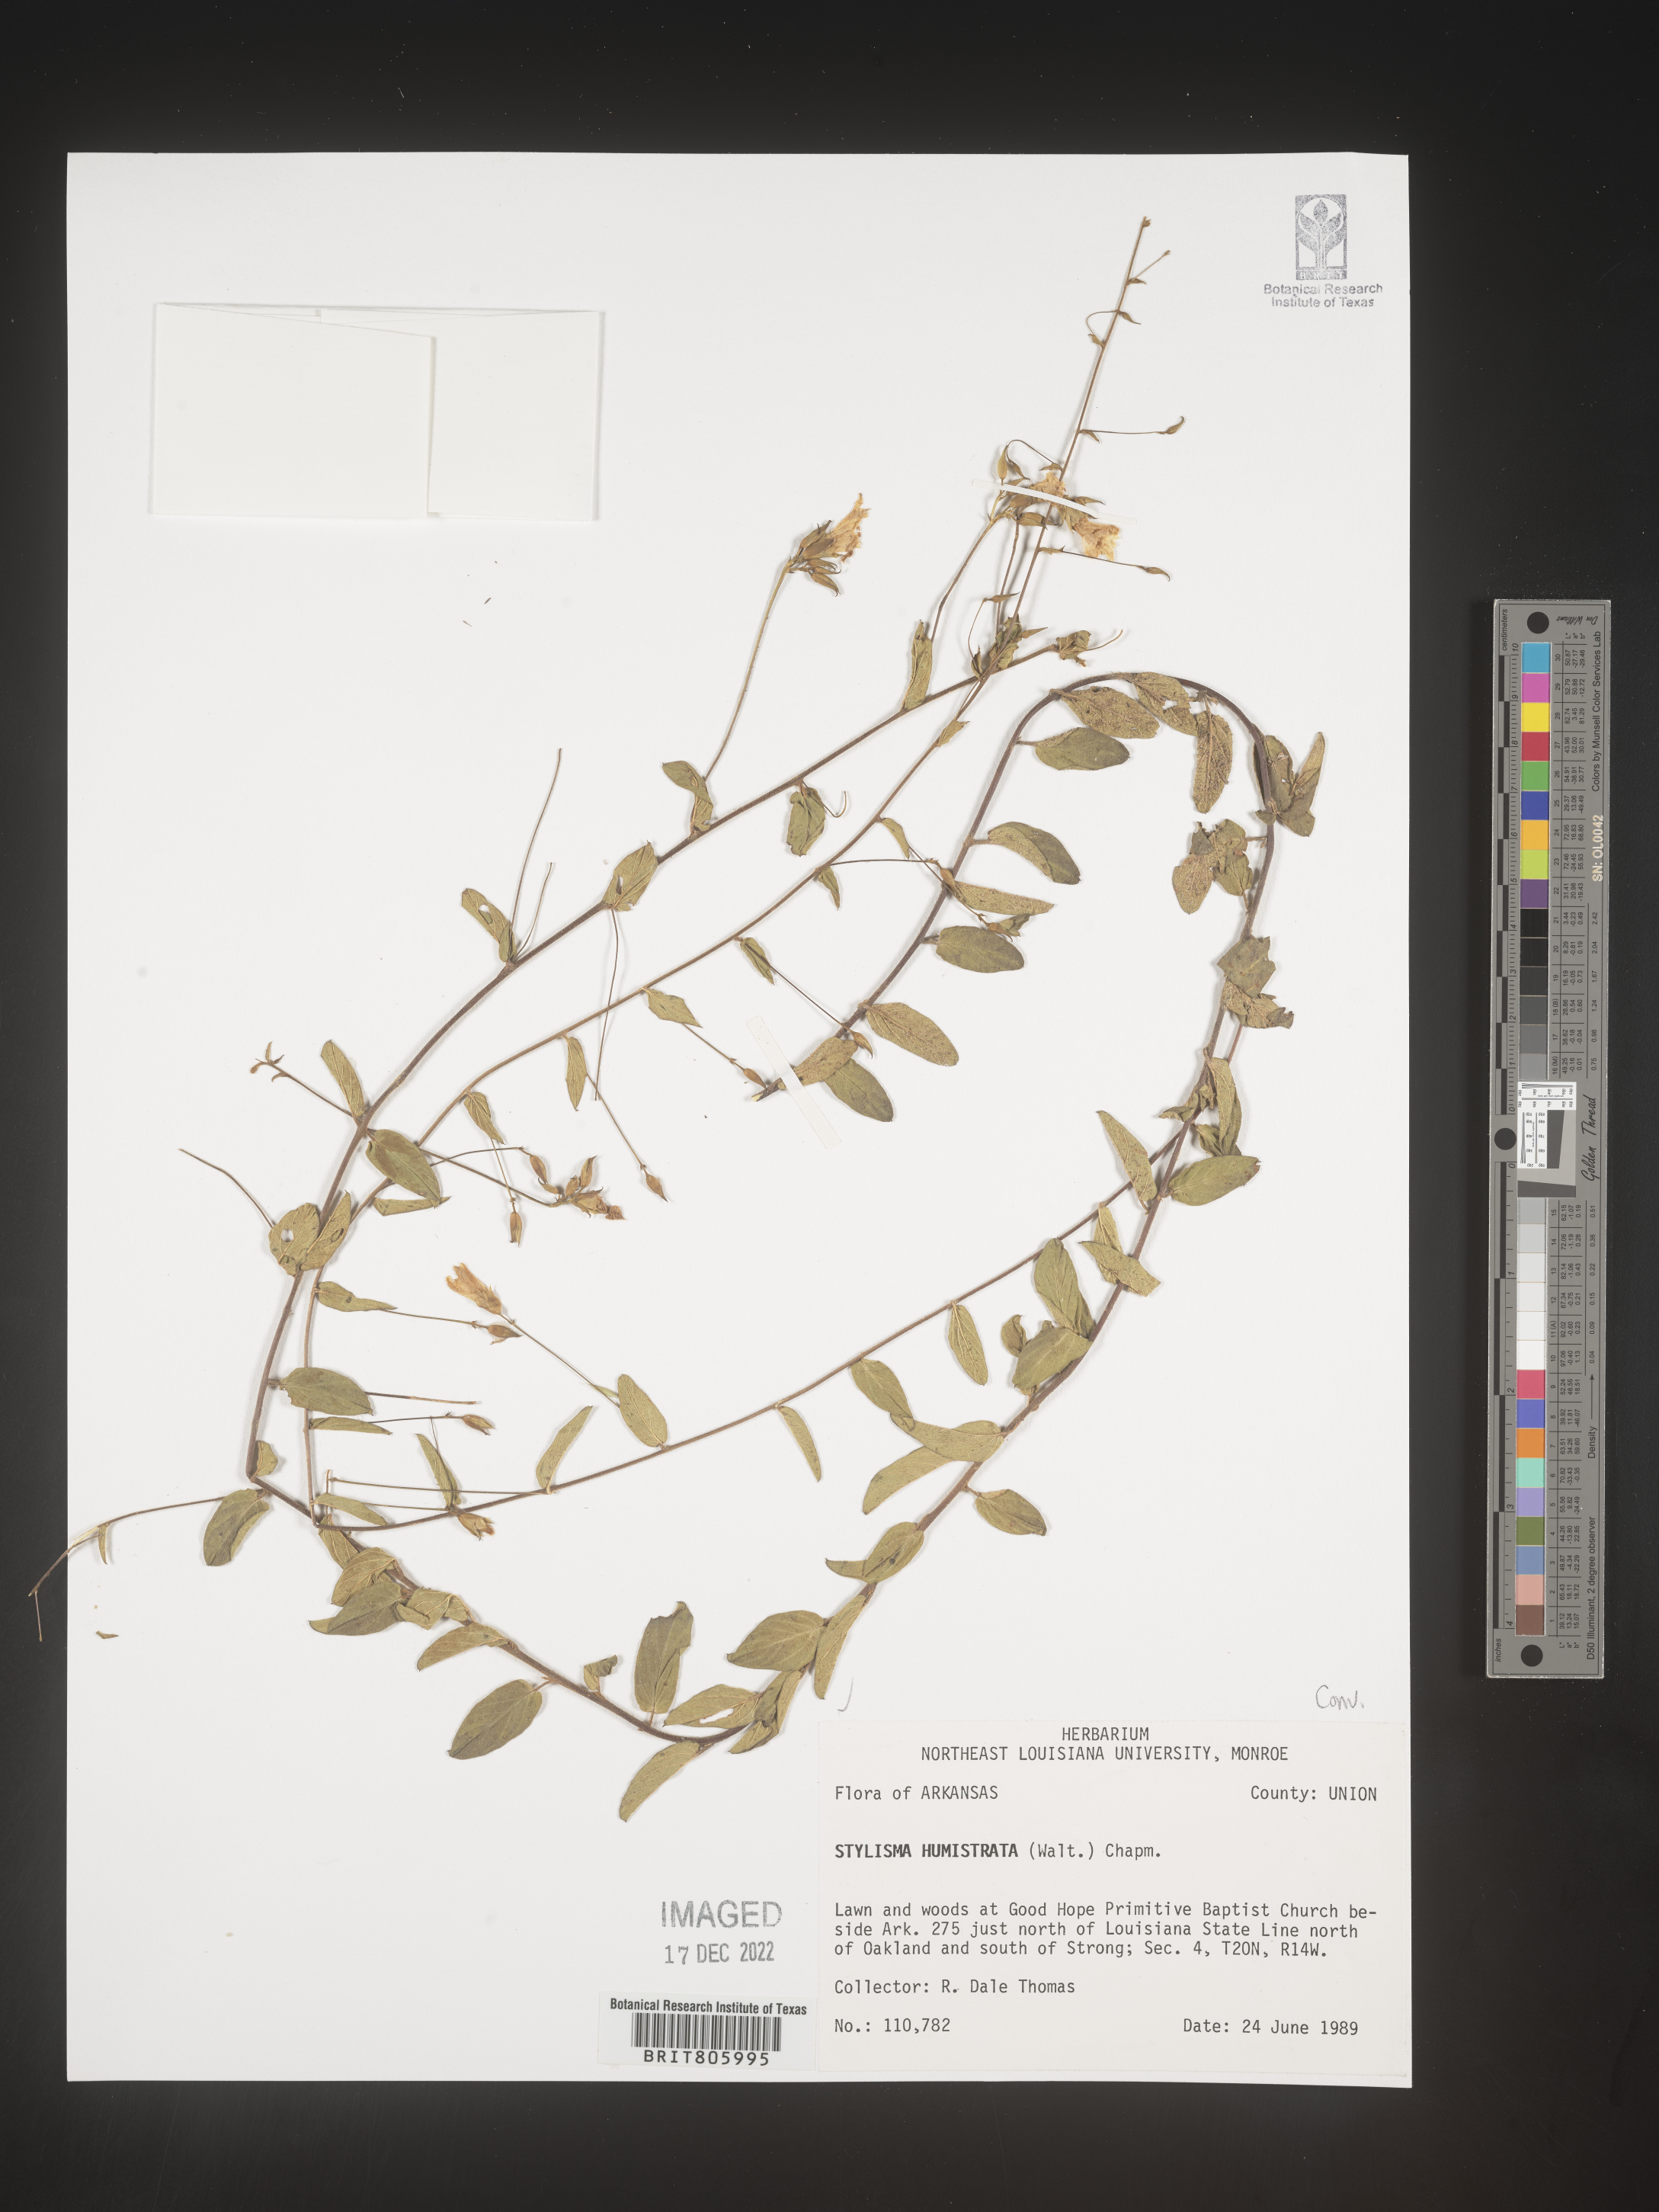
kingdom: Plantae
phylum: Tracheophyta
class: Magnoliopsida
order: Solanales
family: Convolvulaceae
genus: Stylisma
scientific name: Stylisma humistrata
